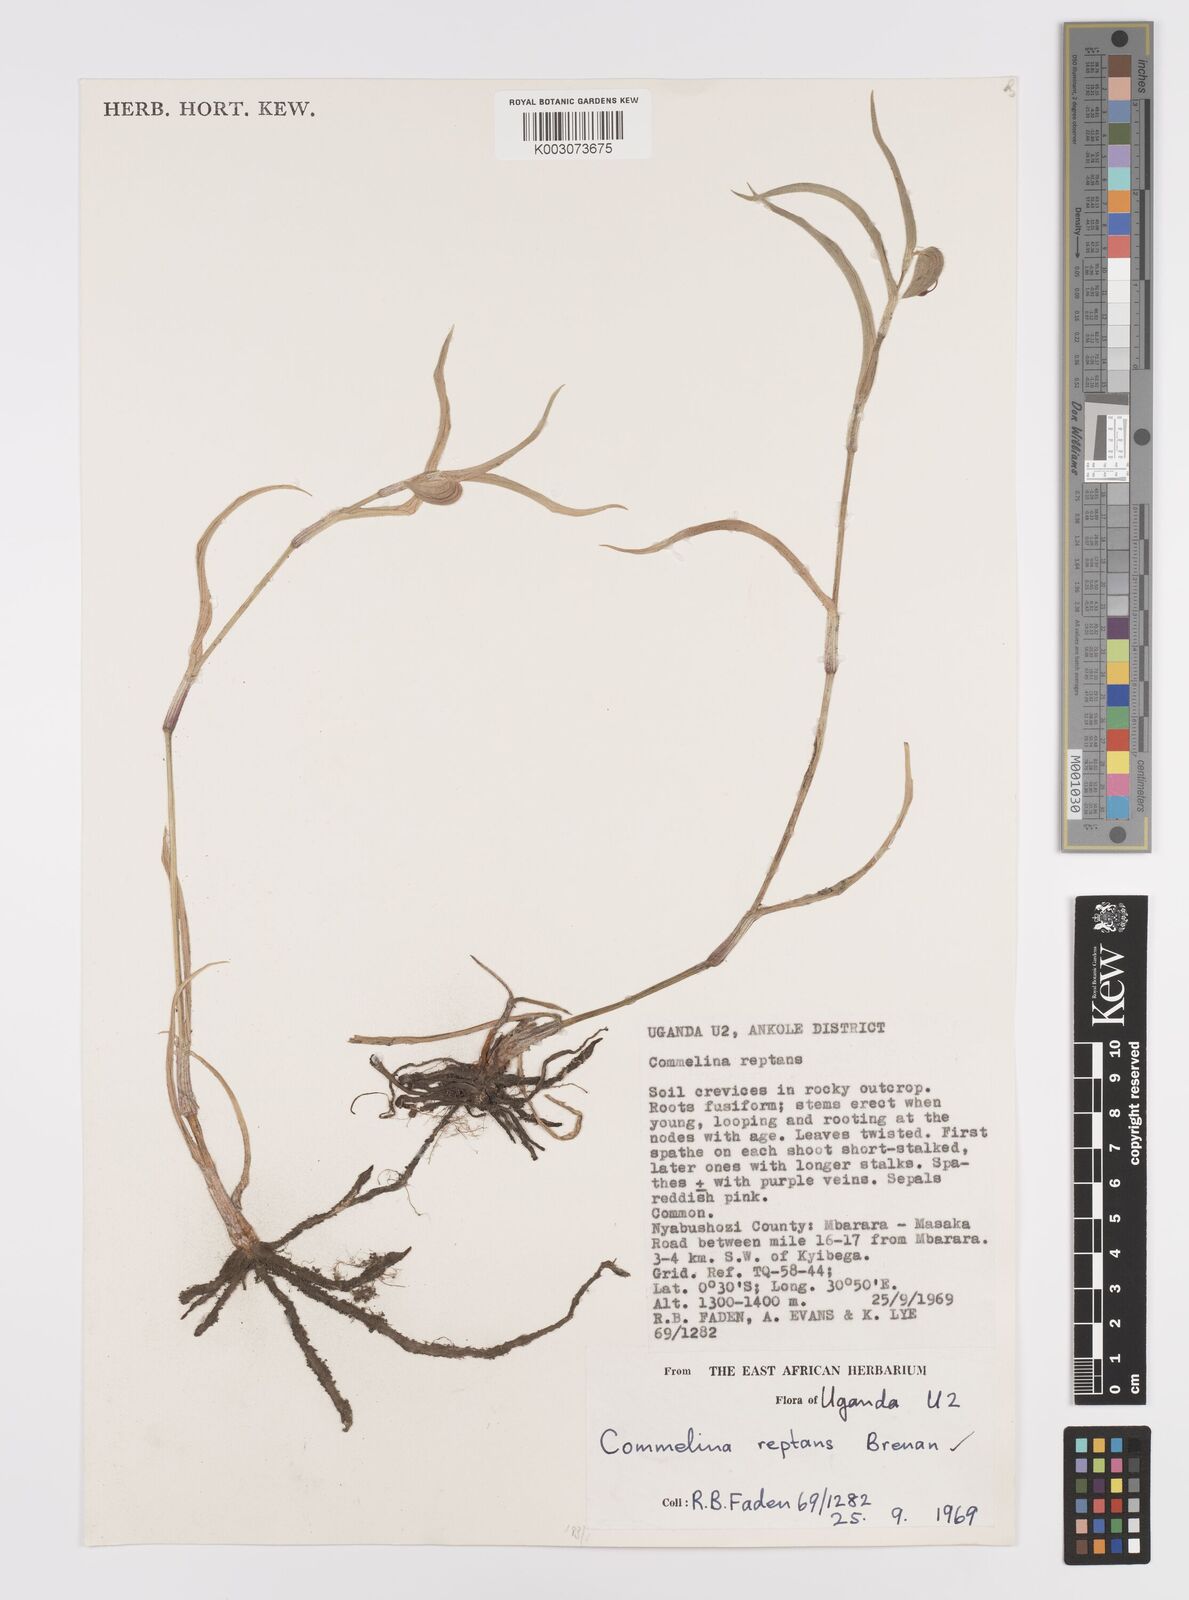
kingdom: Plantae
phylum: Tracheophyta
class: Liliopsida
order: Commelinales
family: Commelinaceae
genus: Commelina
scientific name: Commelina reptans
